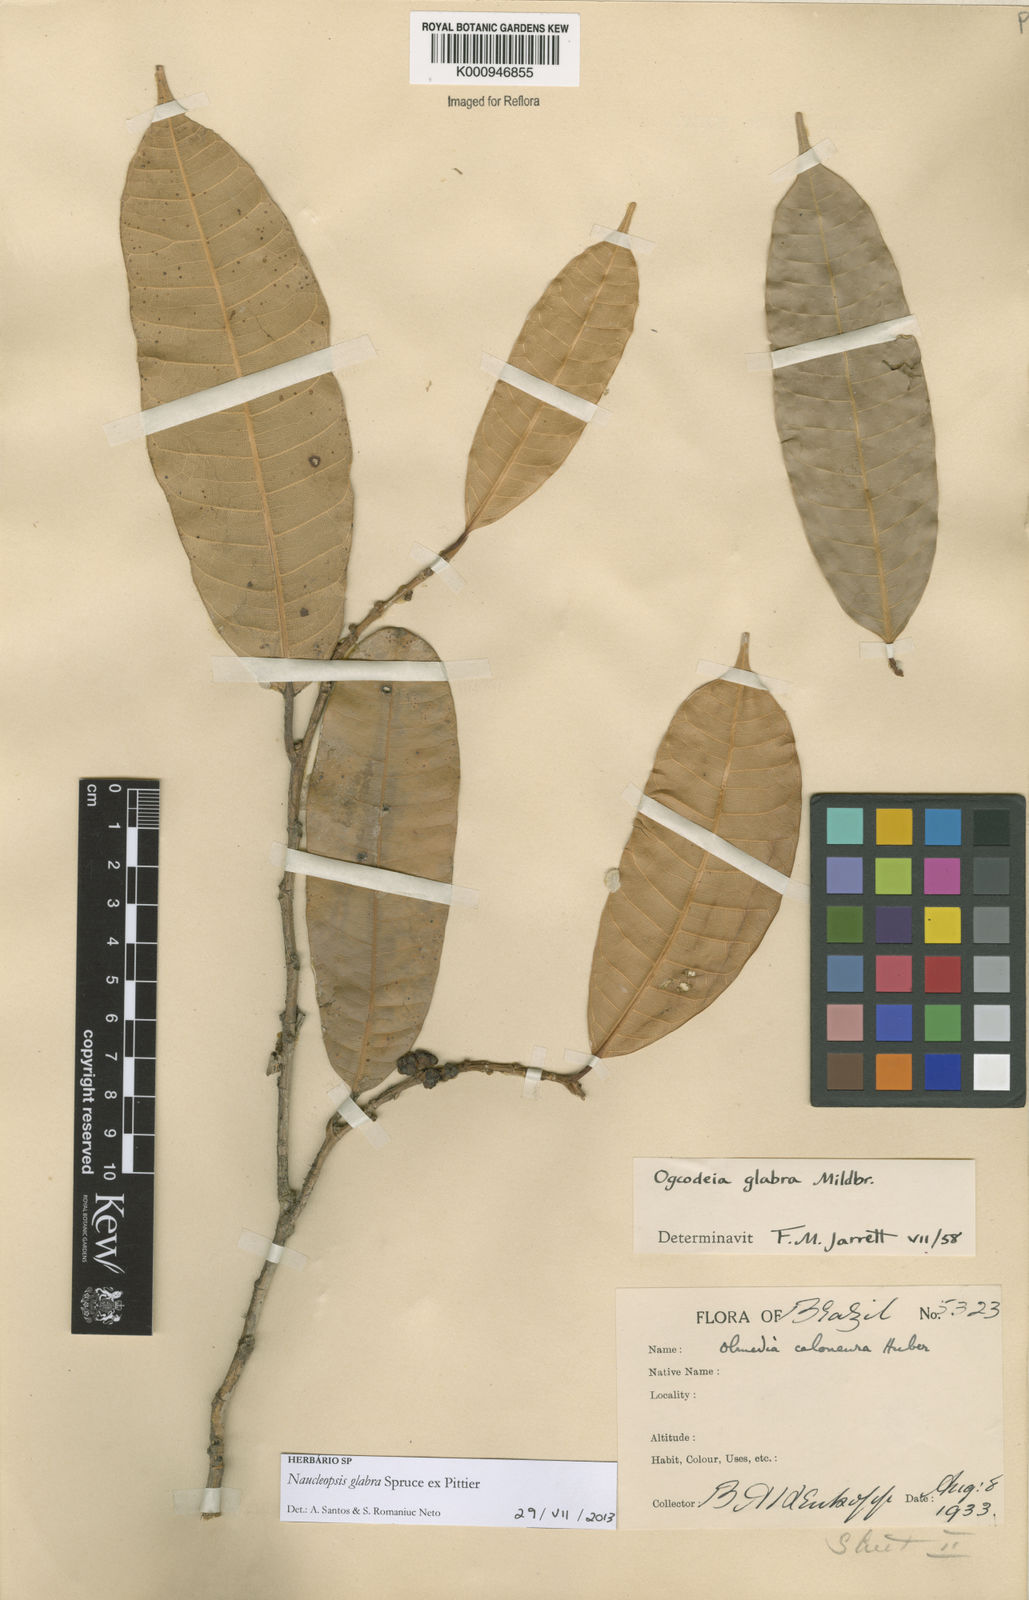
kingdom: Plantae
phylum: Tracheophyta
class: Magnoliopsida
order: Rosales
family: Moraceae
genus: Naucleopsis
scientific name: Naucleopsis glabra
